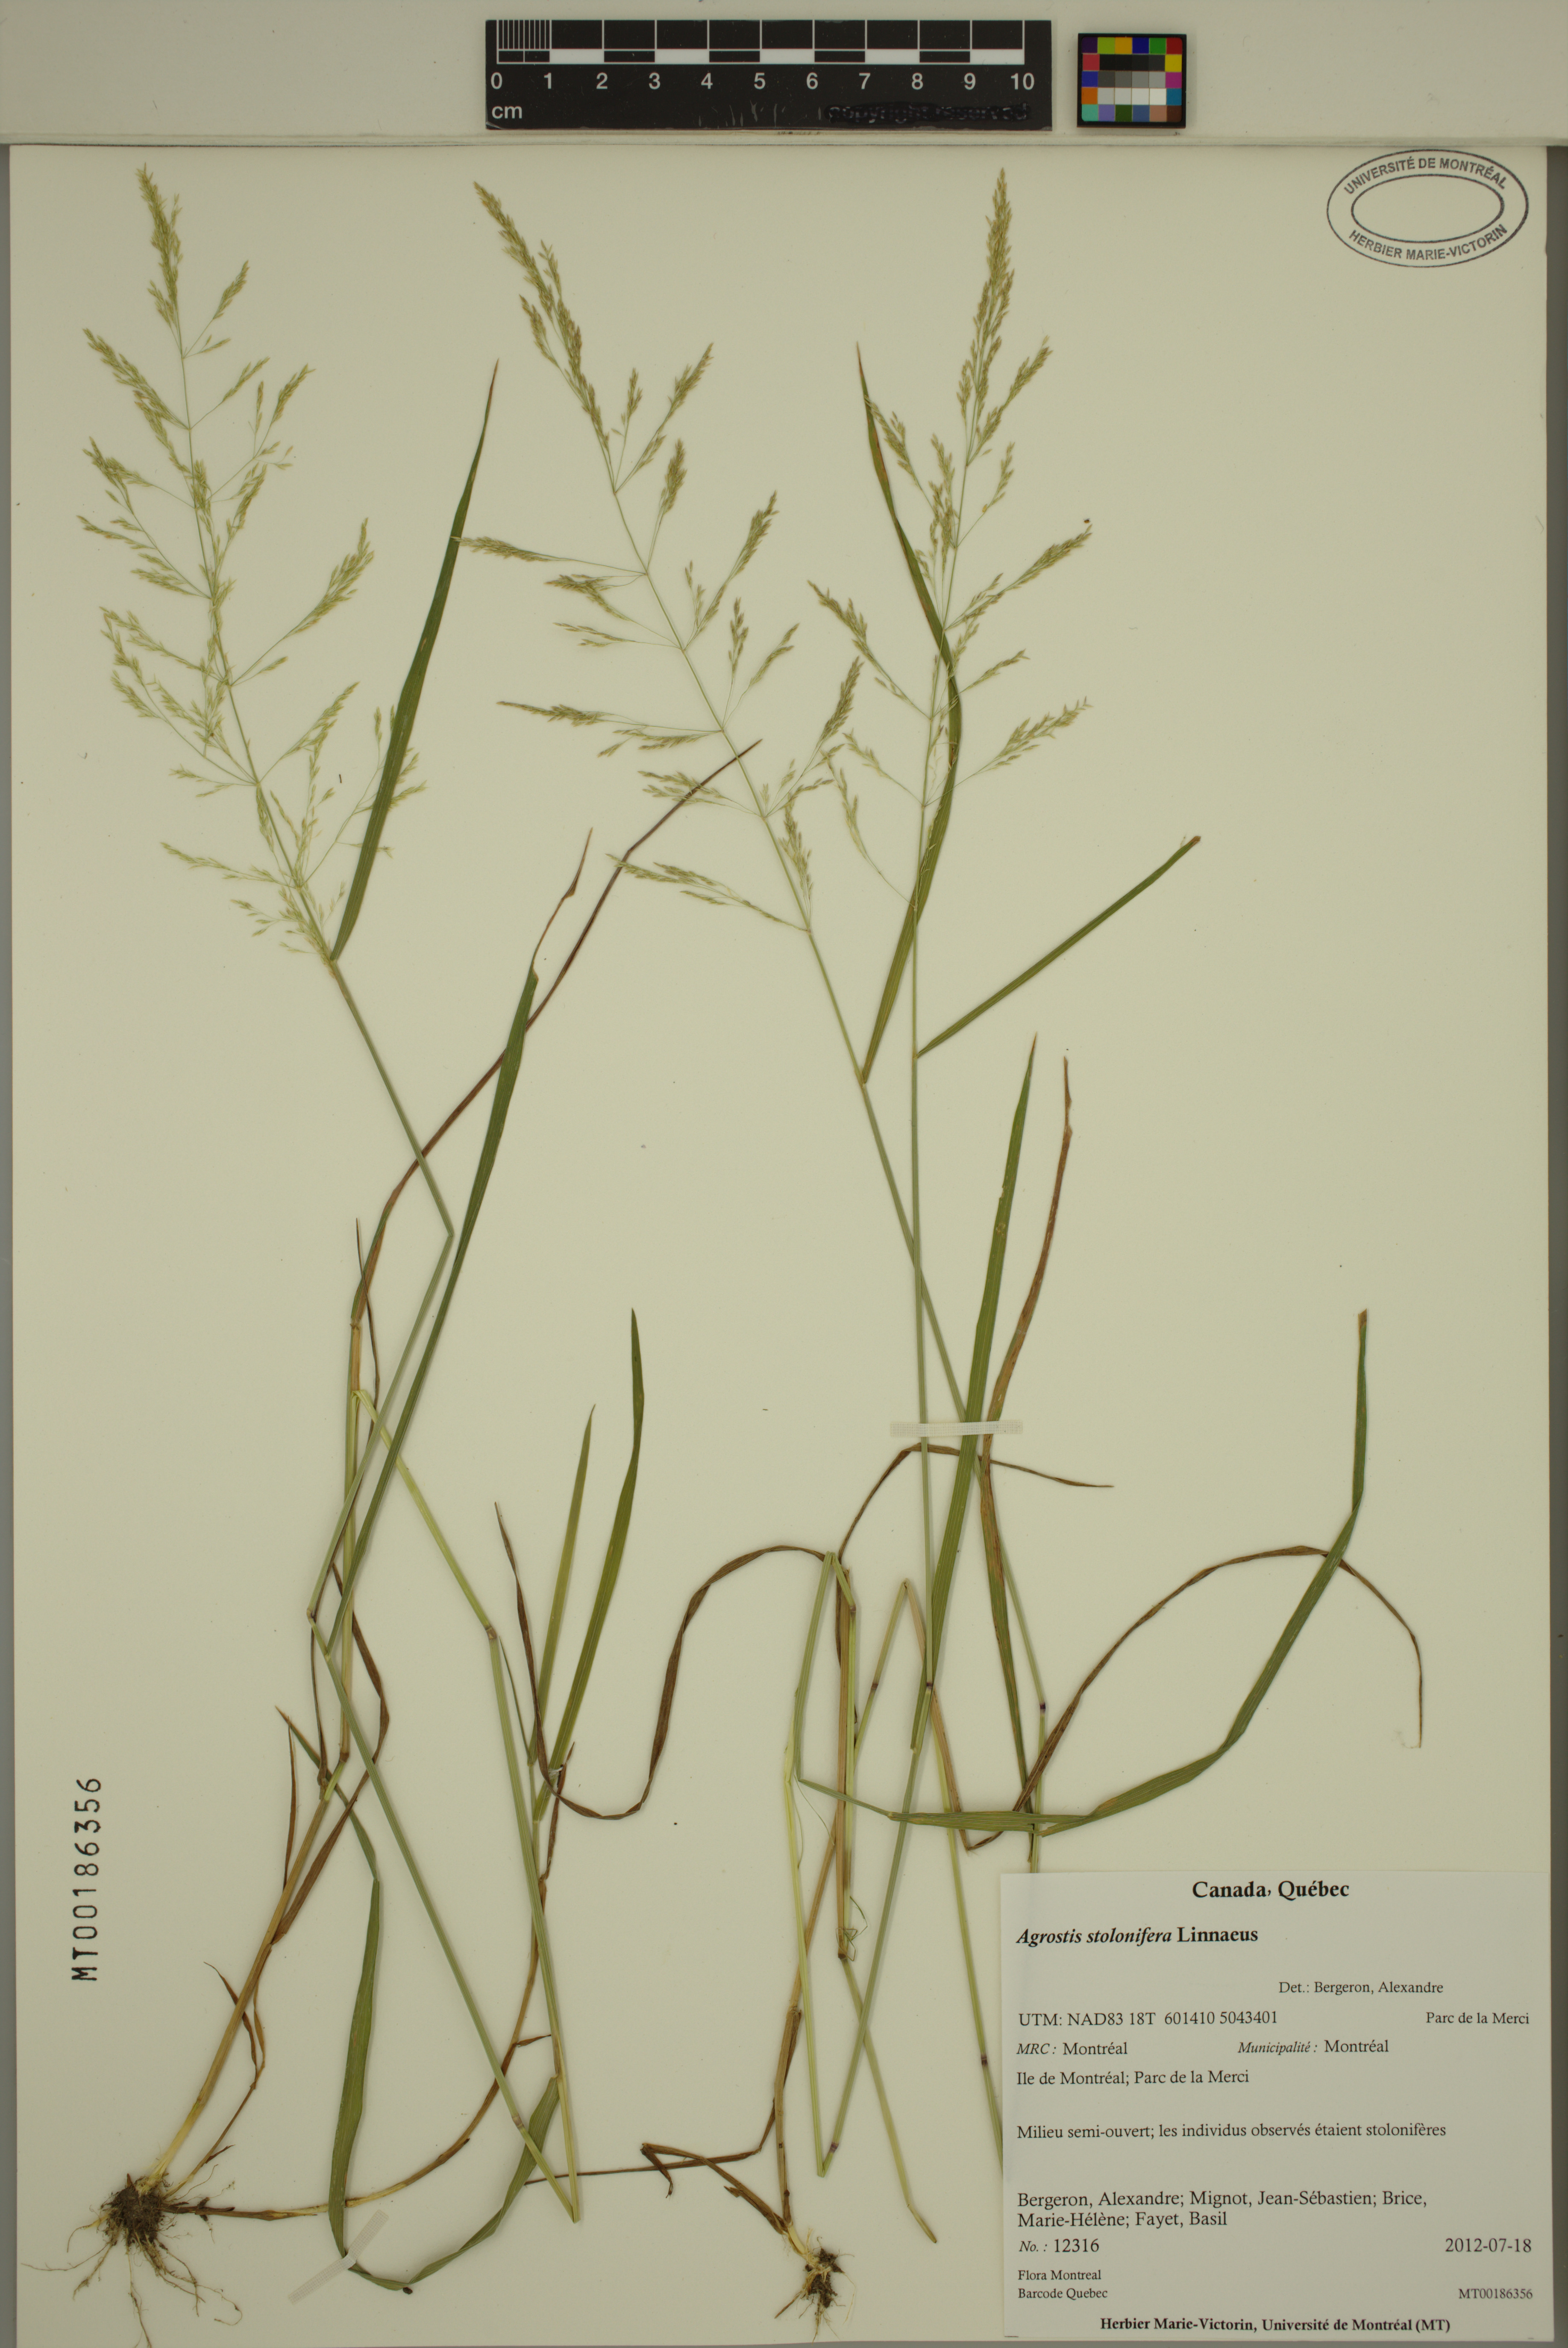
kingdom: Plantae
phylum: Tracheophyta
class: Liliopsida
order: Poales
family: Poaceae
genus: Agrostis
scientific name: Agrostis stolonifera
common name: Creeping bentgrass
